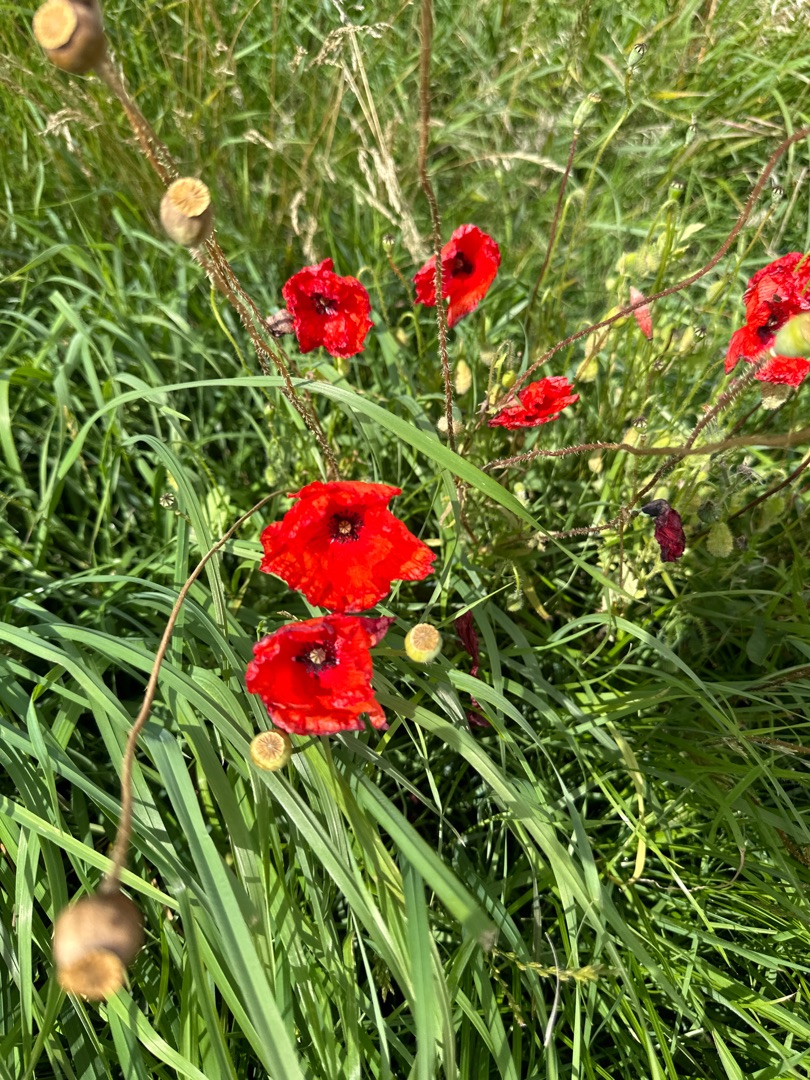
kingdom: Plantae
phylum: Tracheophyta
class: Magnoliopsida
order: Ranunculales
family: Papaveraceae
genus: Papaver
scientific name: Papaver rhoeas
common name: Korn-valmue
